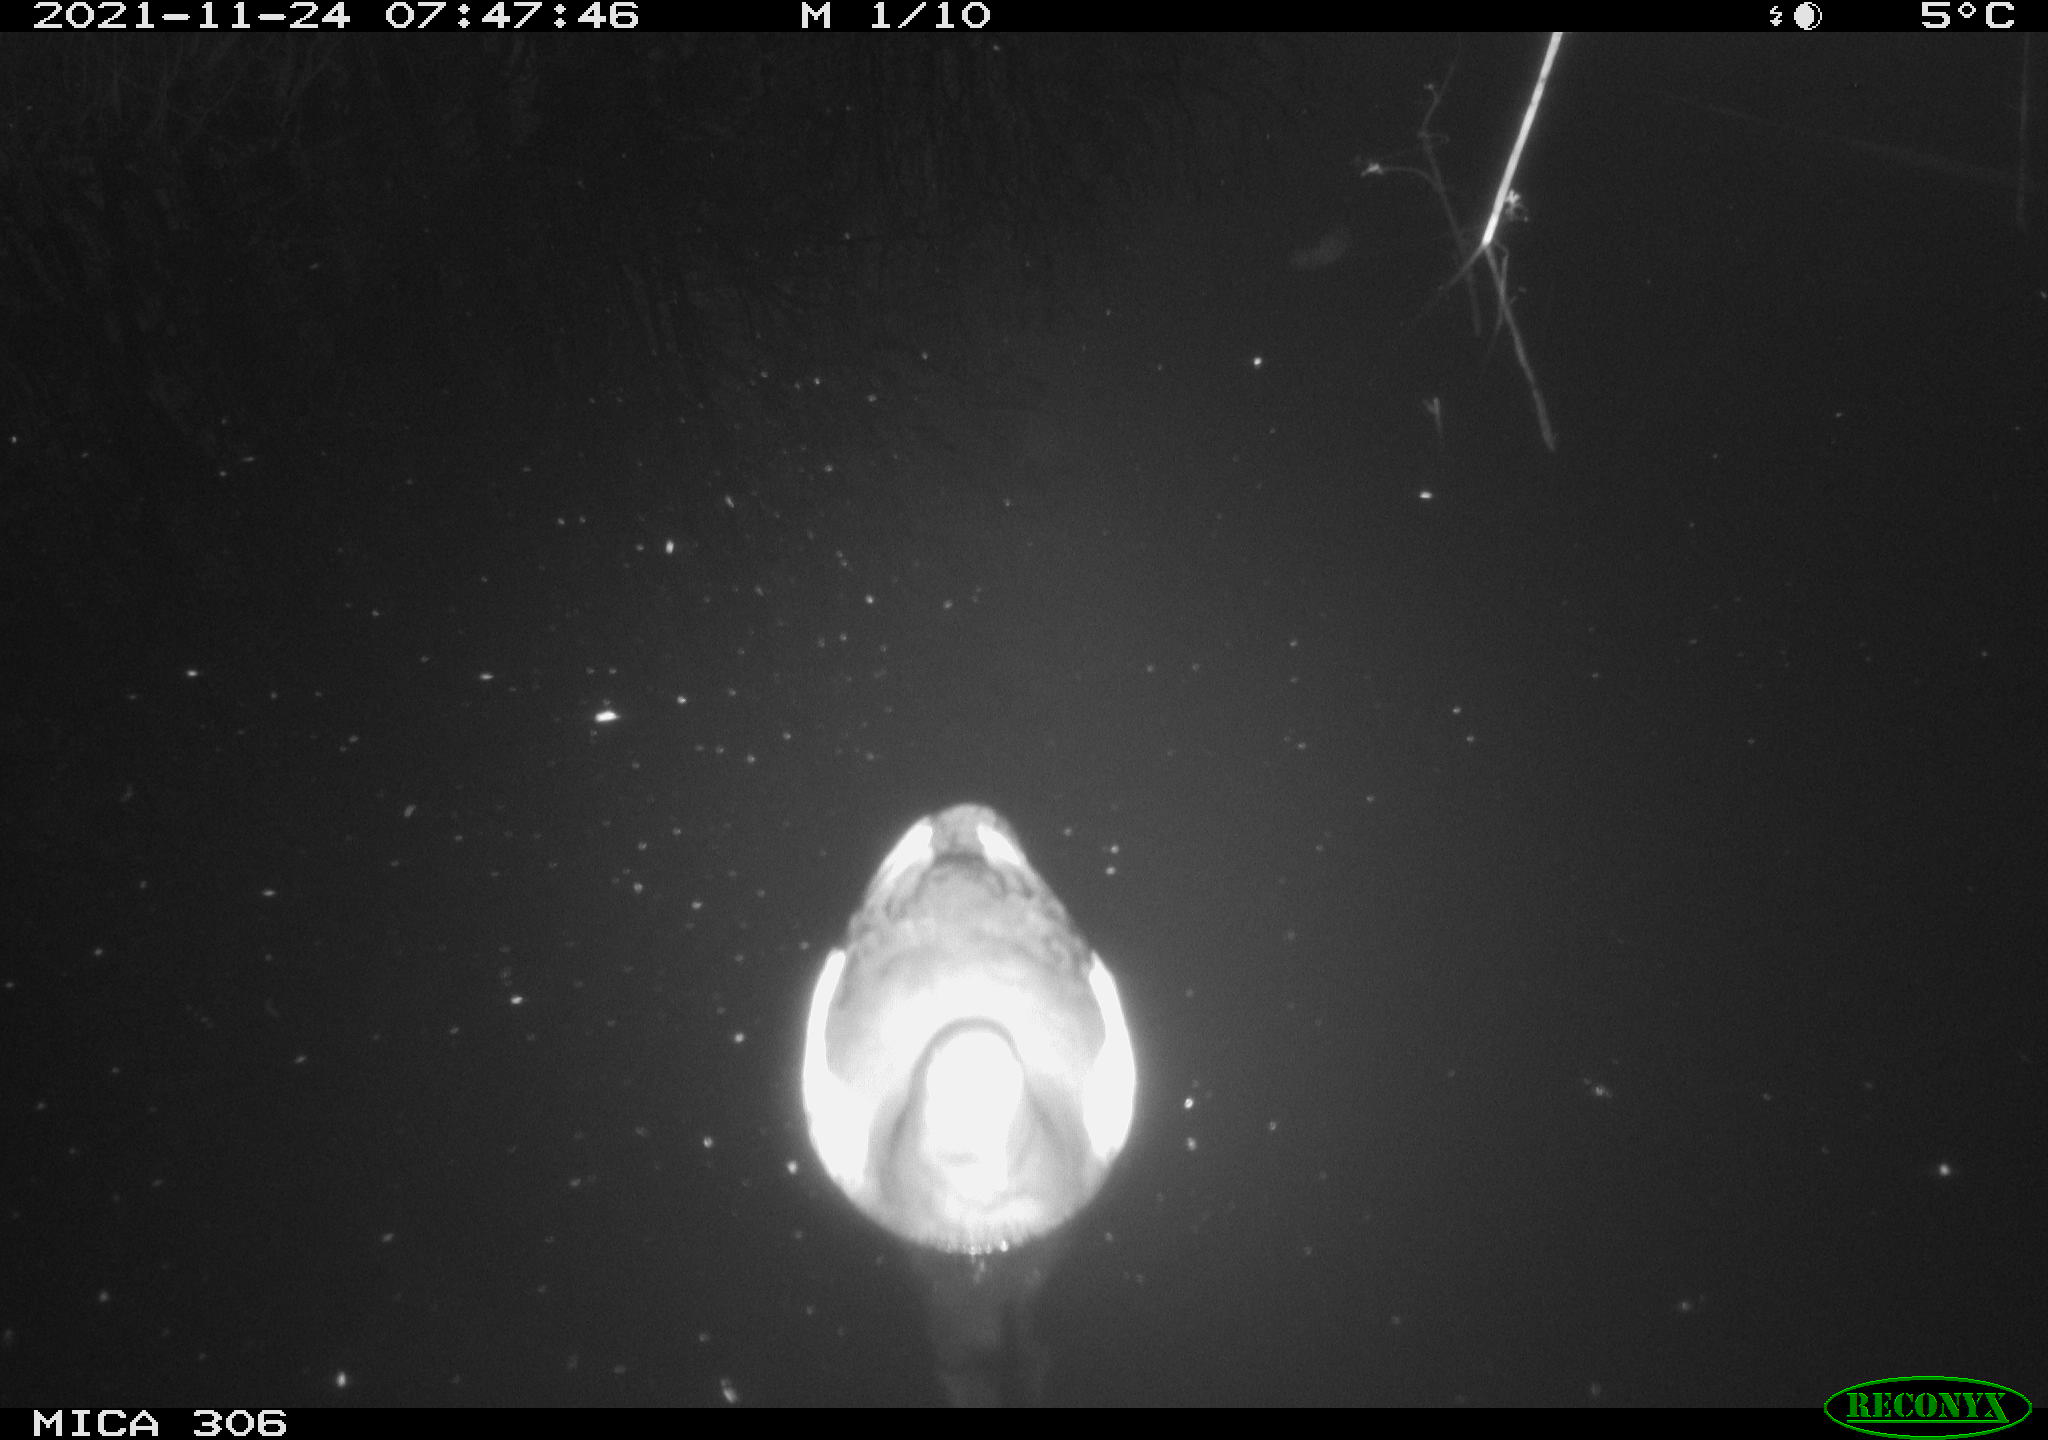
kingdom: Animalia
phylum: Chordata
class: Aves
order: Gruiformes
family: Rallidae
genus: Fulica
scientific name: Fulica atra
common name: Eurasian coot
